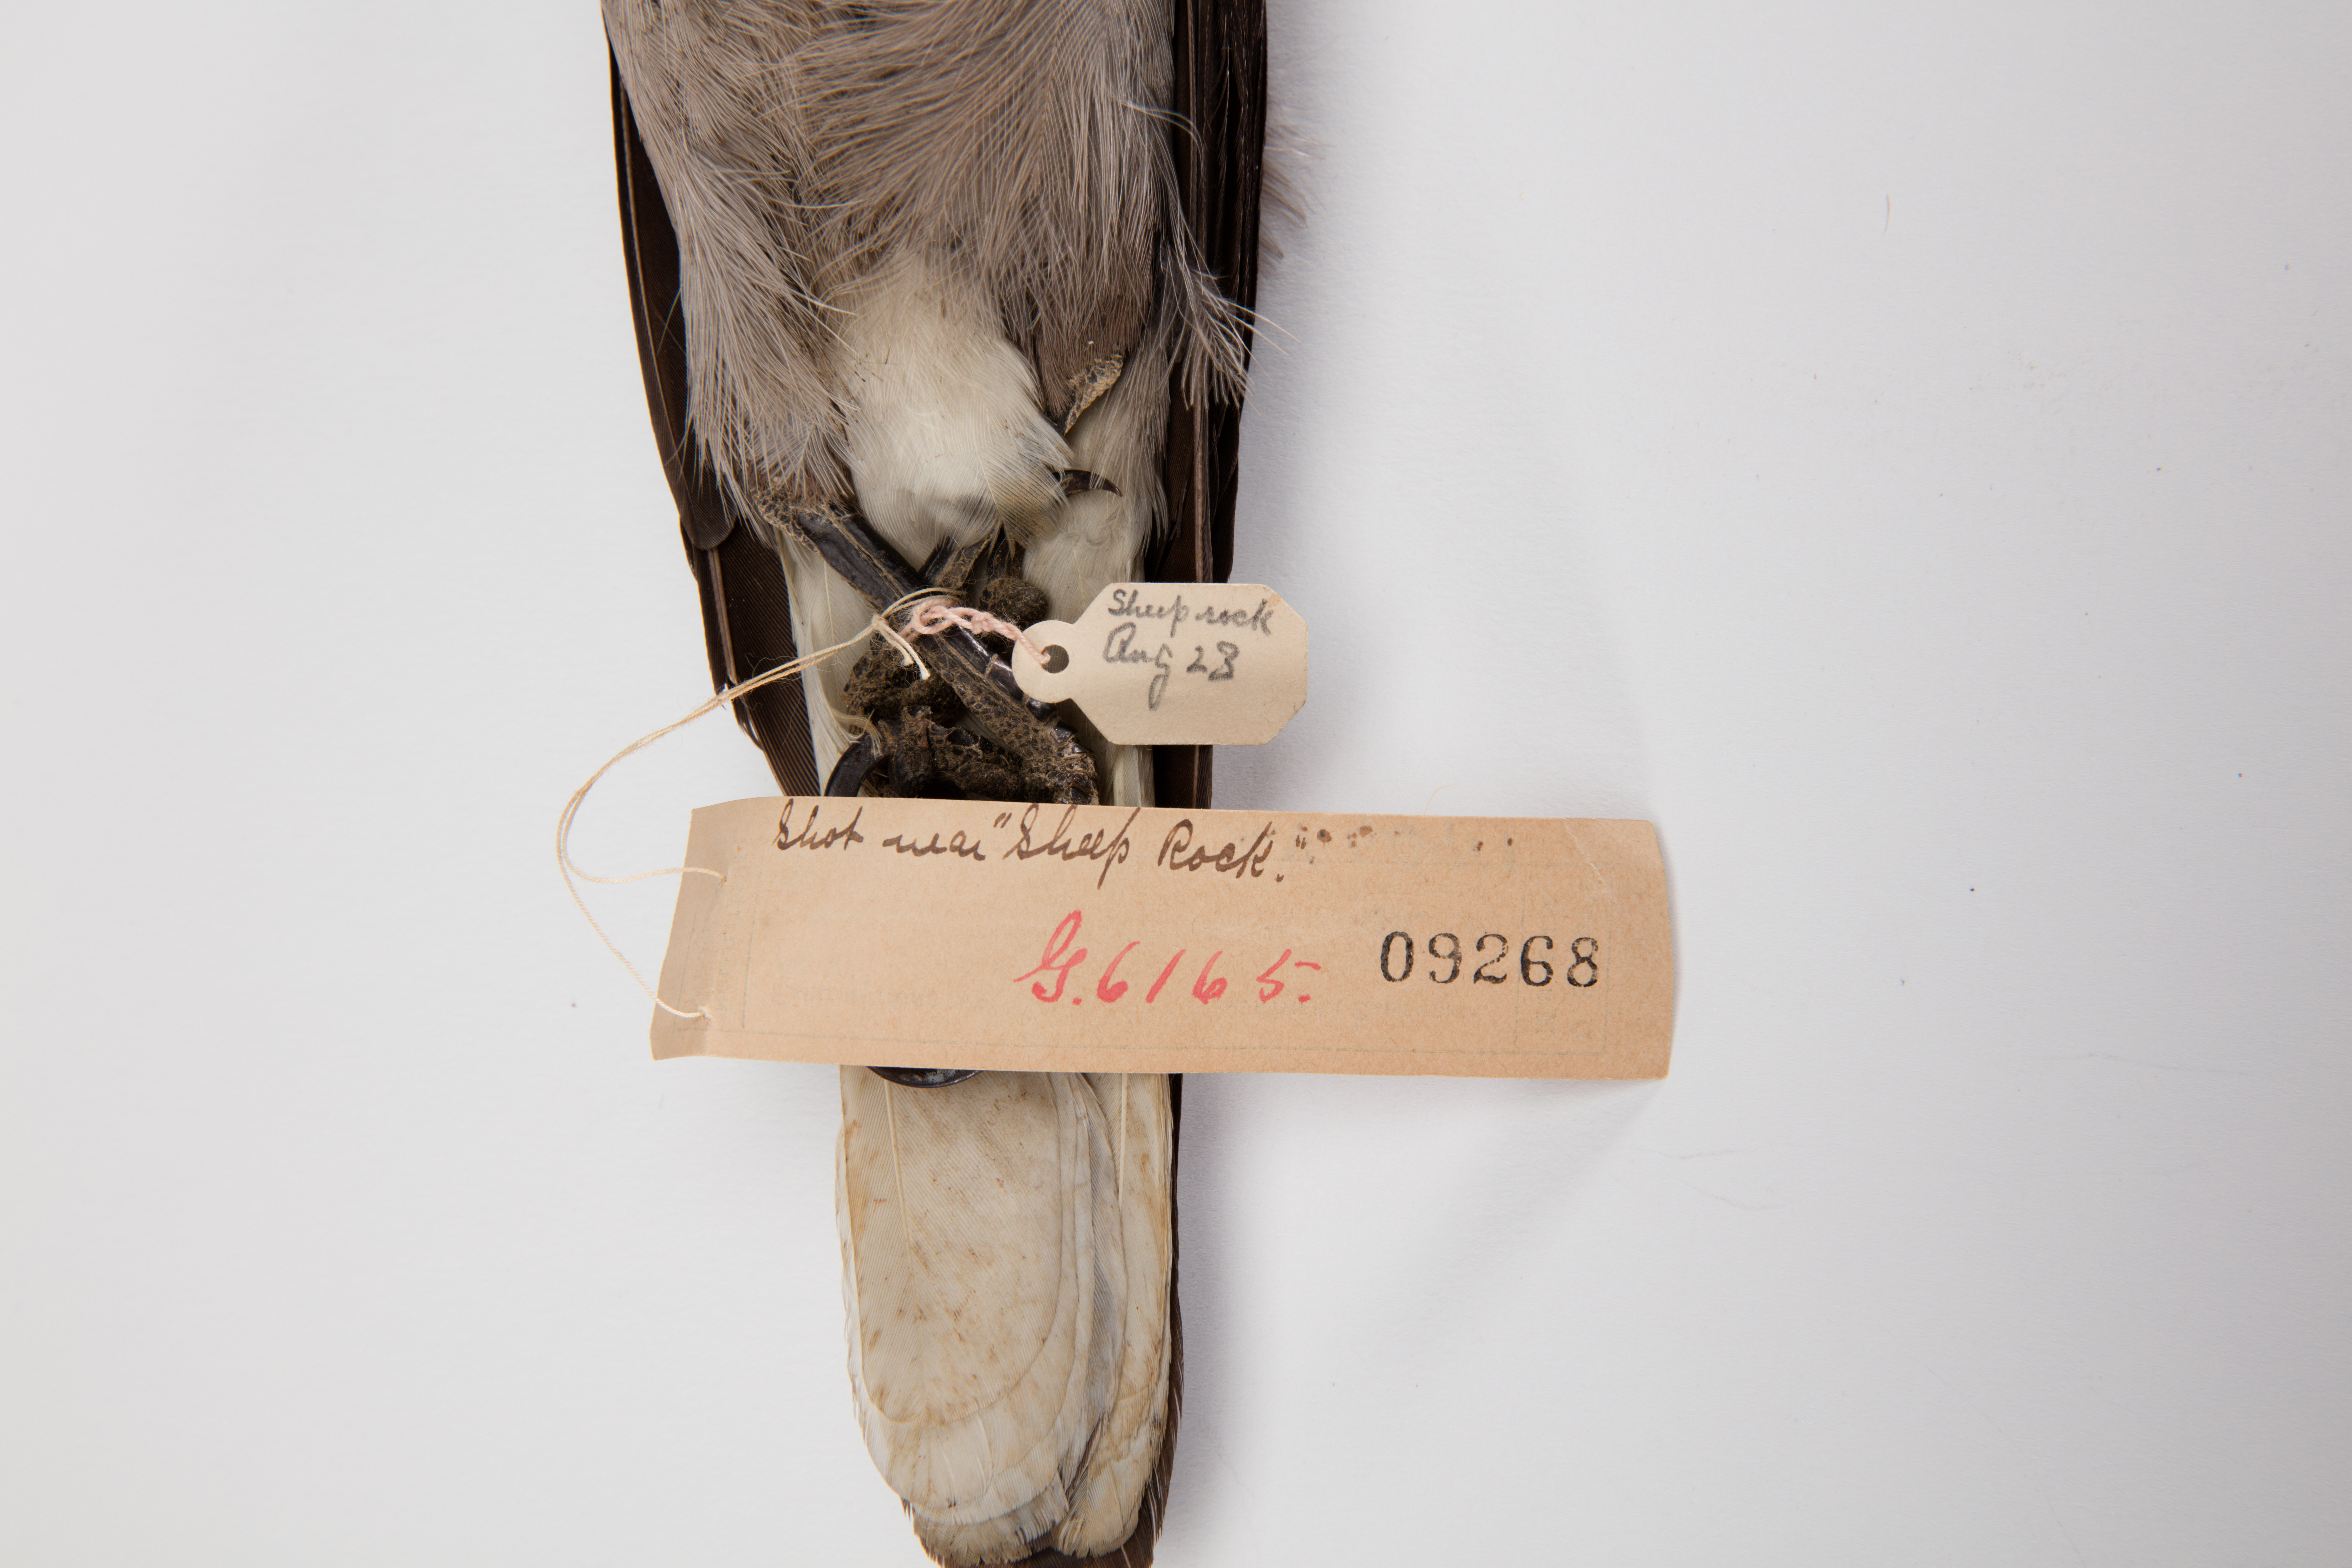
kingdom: Animalia
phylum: Chordata
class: Aves
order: Passeriformes
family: Corvidae
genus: Nucifraga
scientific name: Nucifraga columbiana
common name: Clark's nutcracker
